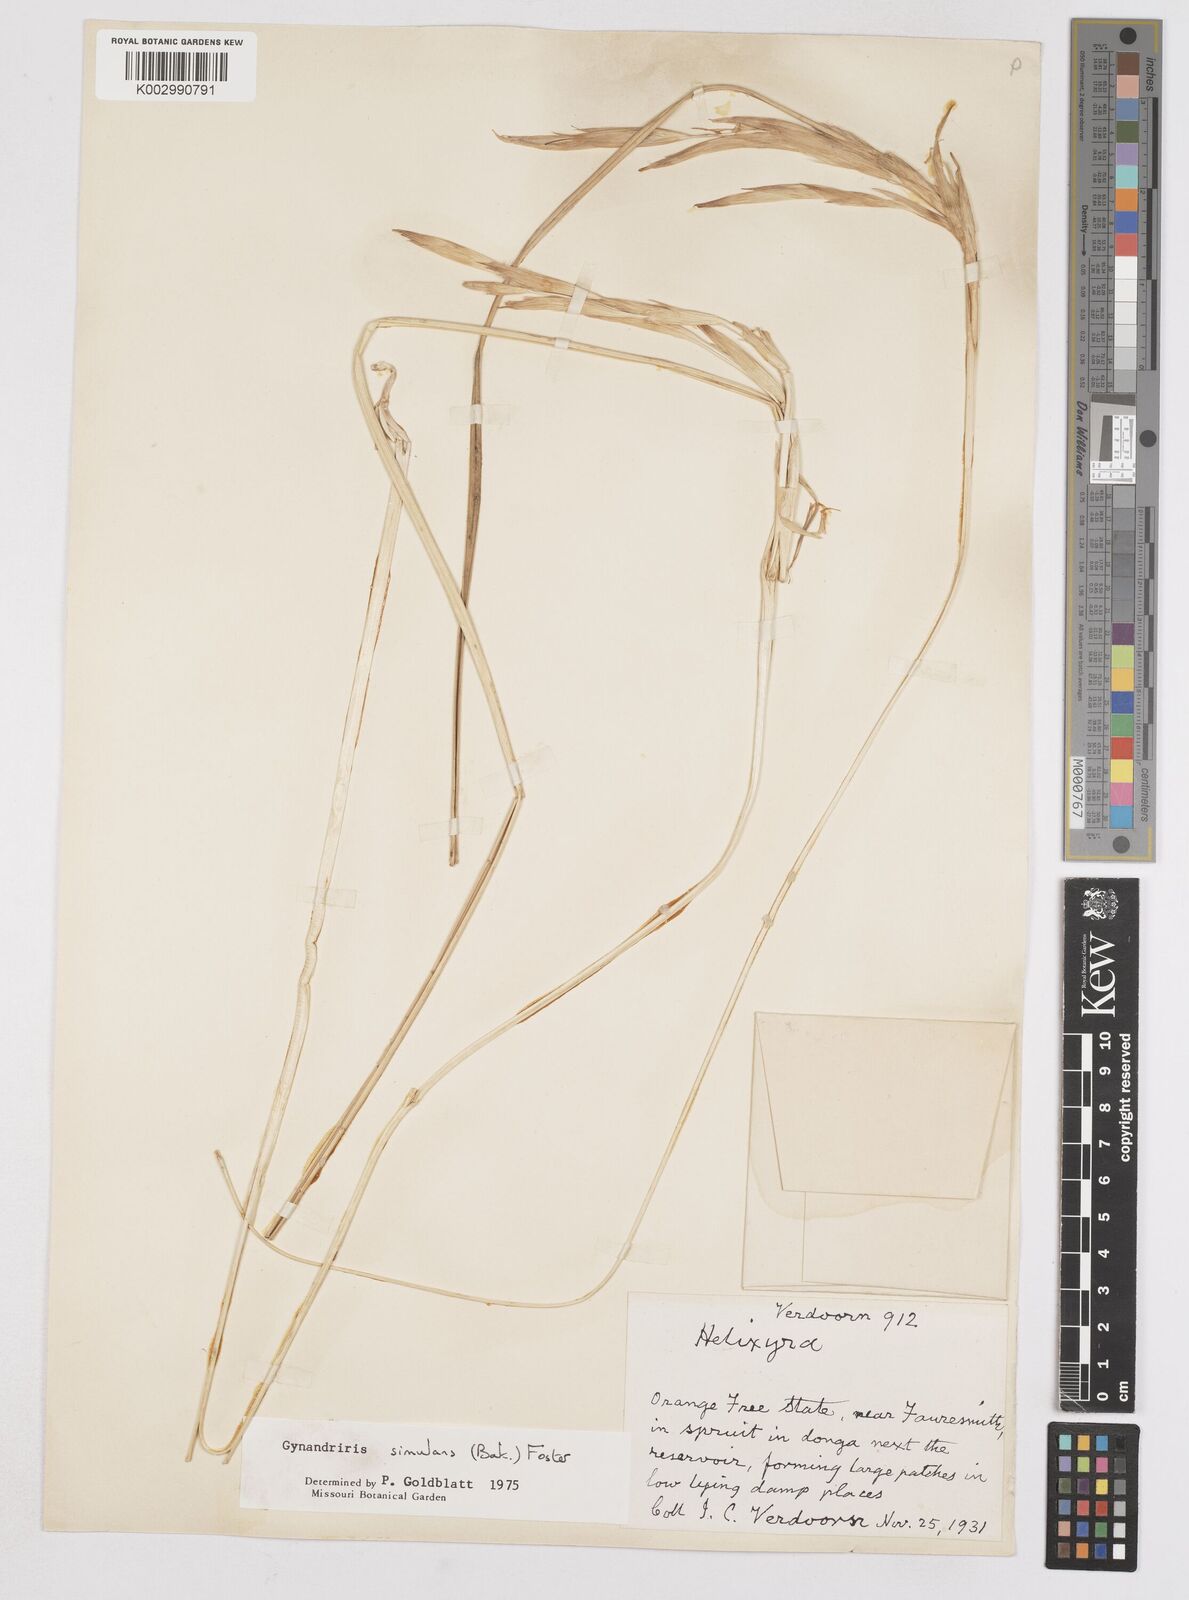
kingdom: Plantae
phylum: Tracheophyta
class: Liliopsida
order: Asparagales
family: Iridaceae
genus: Moraea
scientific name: Moraea simulans
